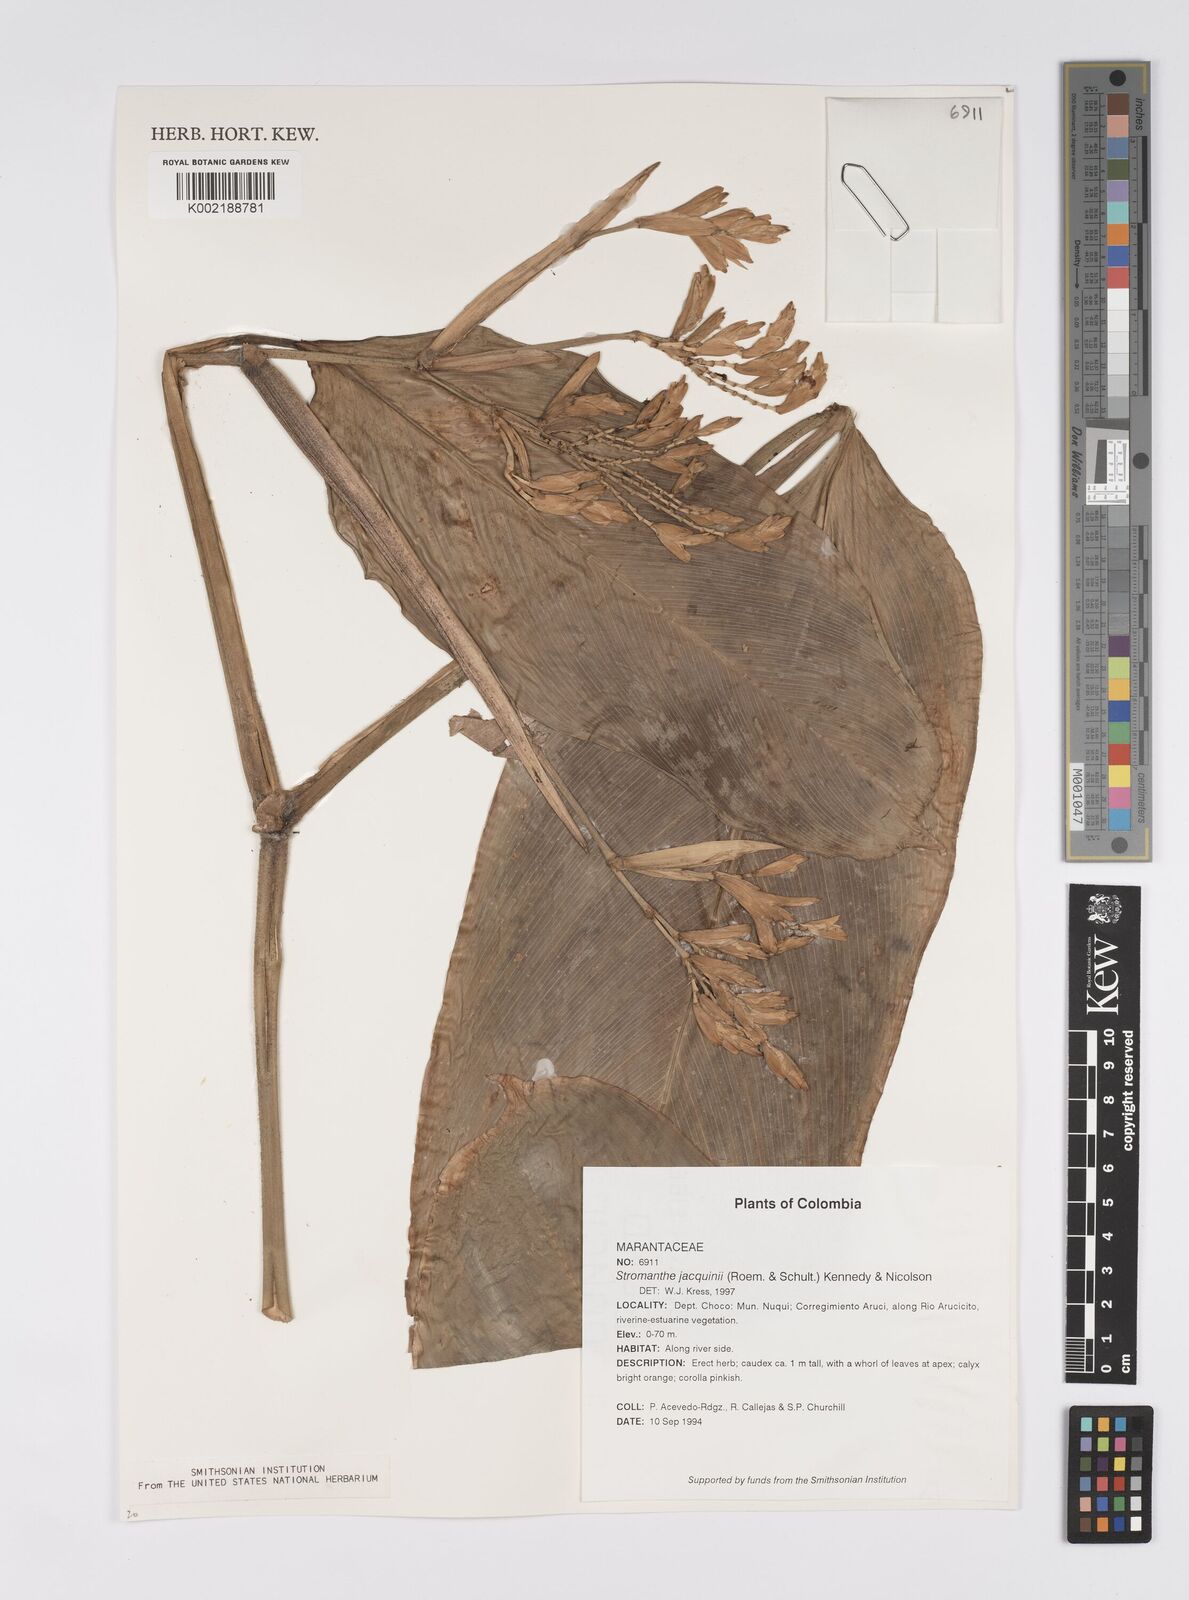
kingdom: Plantae
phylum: Tracheophyta
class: Liliopsida
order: Zingiberales
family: Marantaceae
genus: Stromanthe
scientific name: Stromanthe jacquinii
